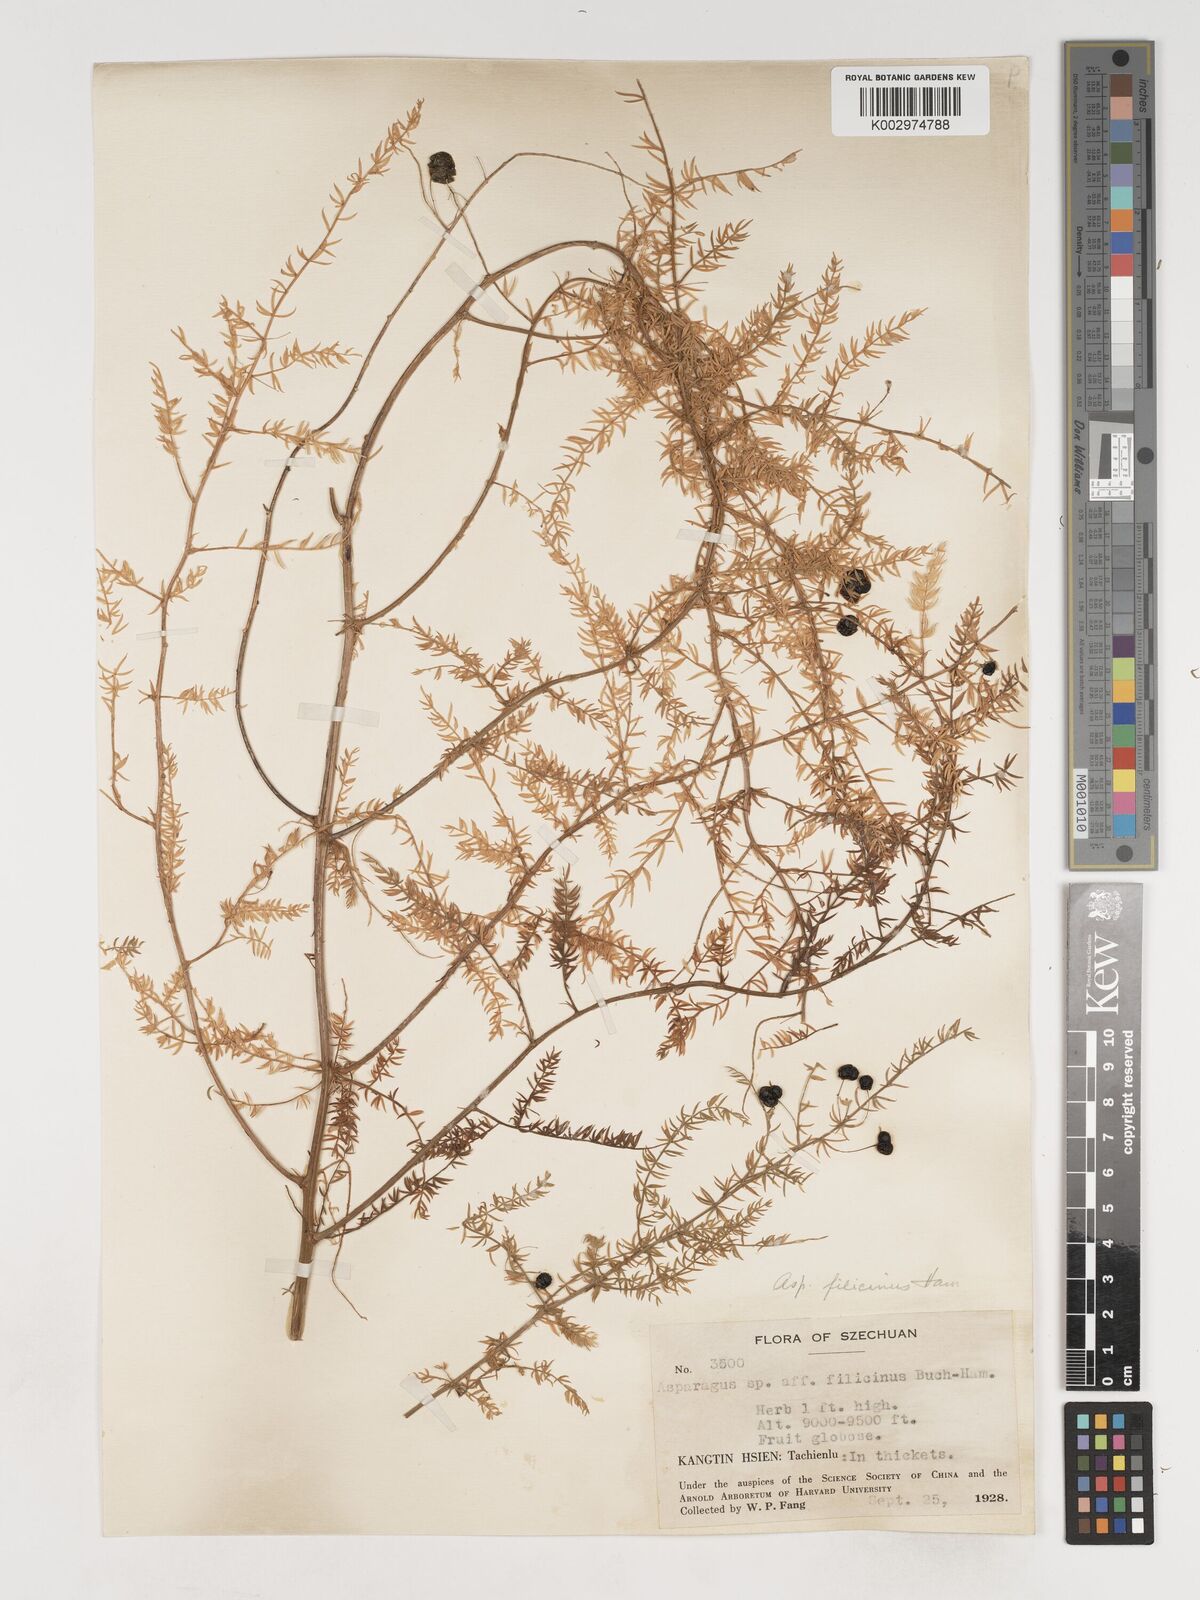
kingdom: Plantae
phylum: Tracheophyta
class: Liliopsida
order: Asparagales
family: Asparagaceae
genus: Asparagus
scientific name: Asparagus filicinus
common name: Fern asparagus
